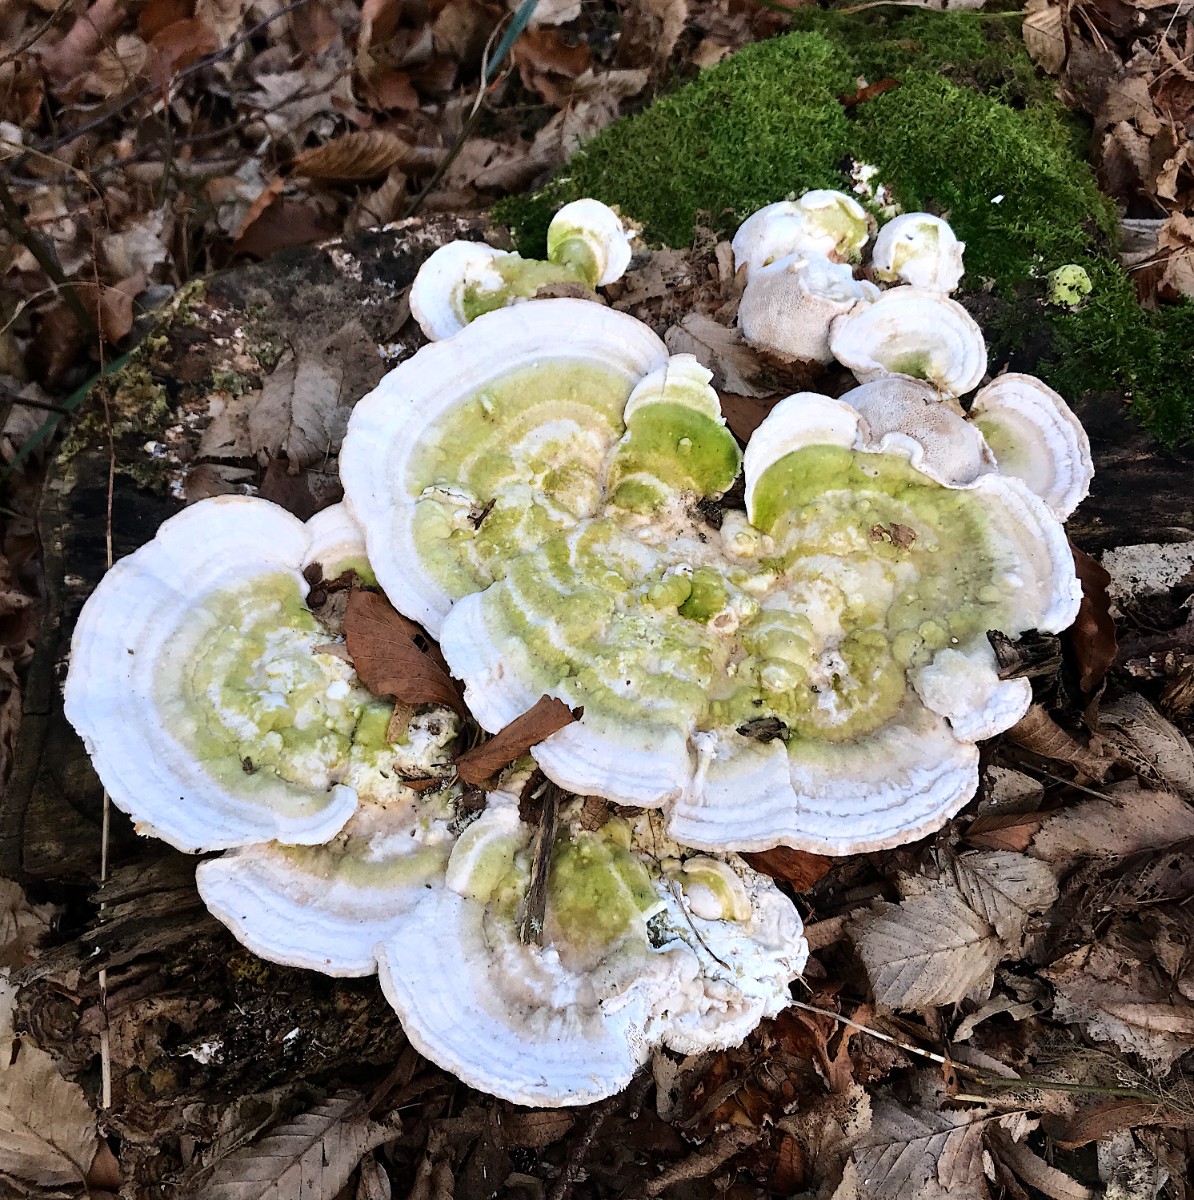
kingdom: Fungi
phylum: Basidiomycota
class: Agaricomycetes
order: Polyporales
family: Polyporaceae
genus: Trametes
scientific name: Trametes gibbosa
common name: puklet læderporesvamp
